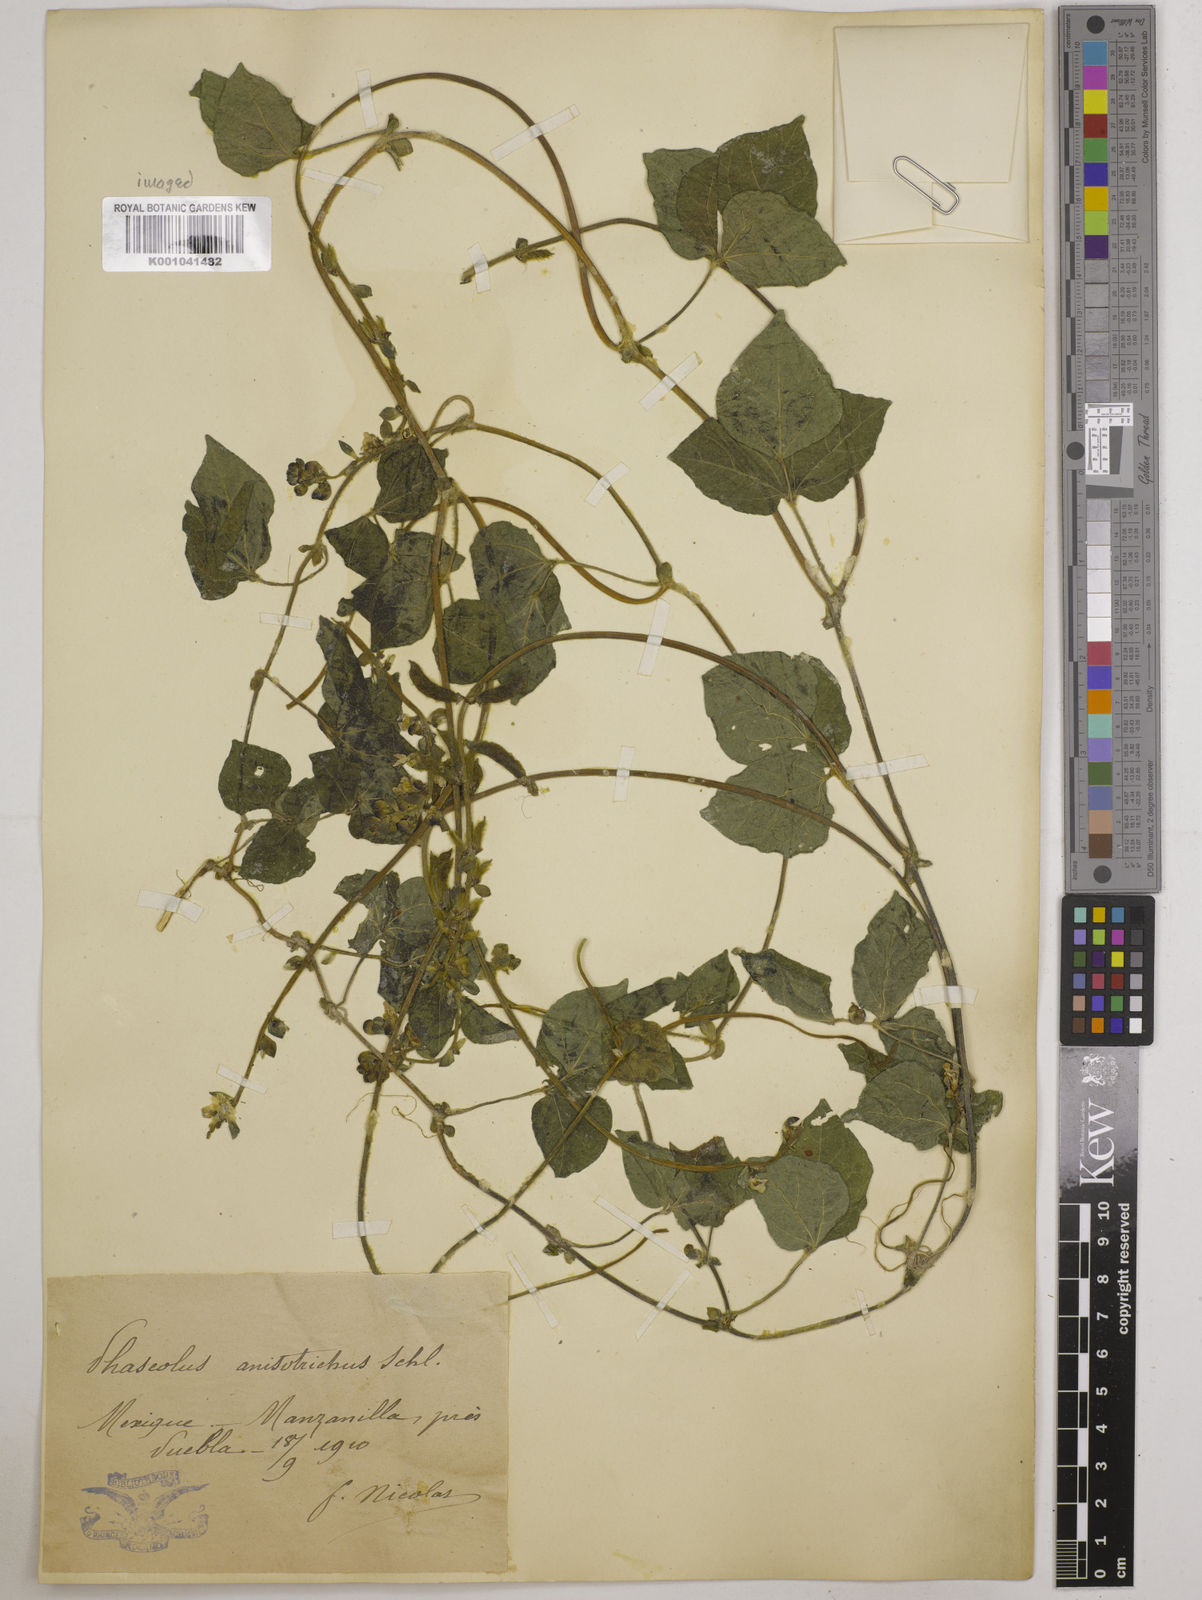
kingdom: Plantae
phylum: Tracheophyta
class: Magnoliopsida
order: Fabales
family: Fabaceae
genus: Phaseolus
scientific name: Phaseolus
